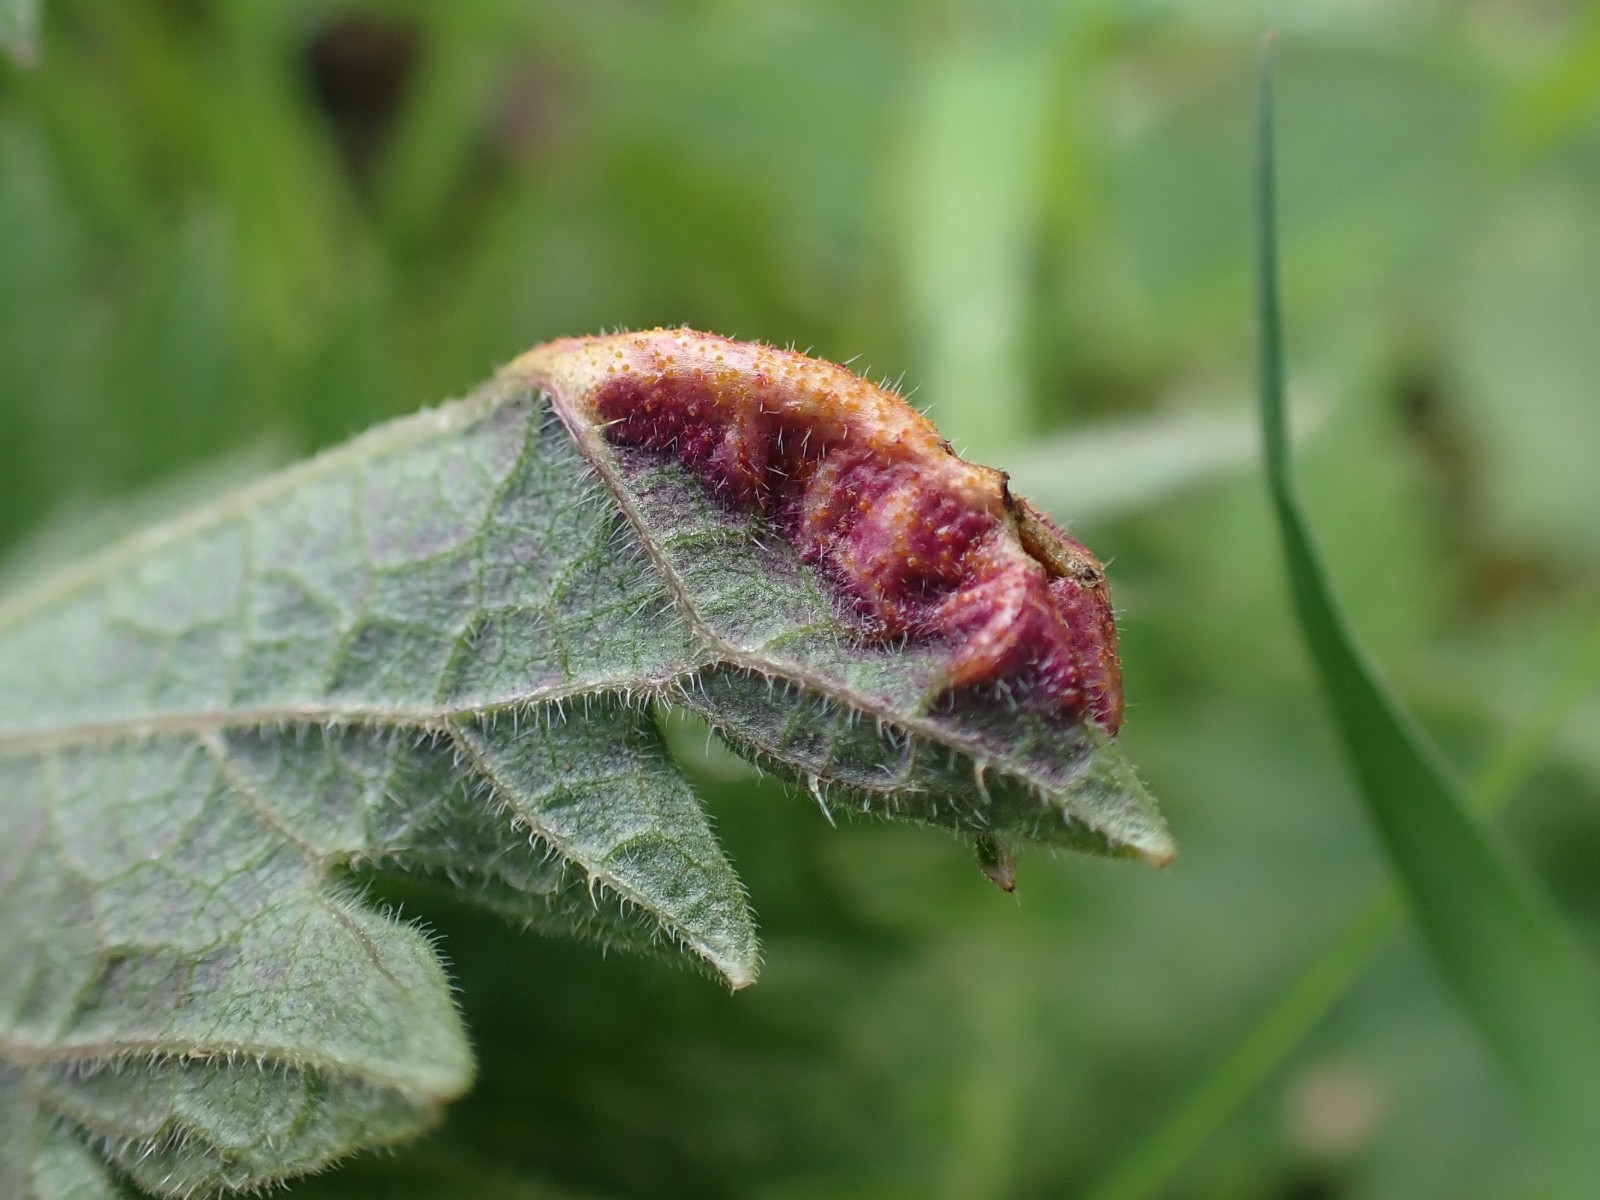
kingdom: Fungi
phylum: Basidiomycota
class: Pucciniomycetes
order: Pucciniales
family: Pucciniaceae
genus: Puccinia
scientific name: Puccinia urticata
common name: nældegalle-tvecellerust
